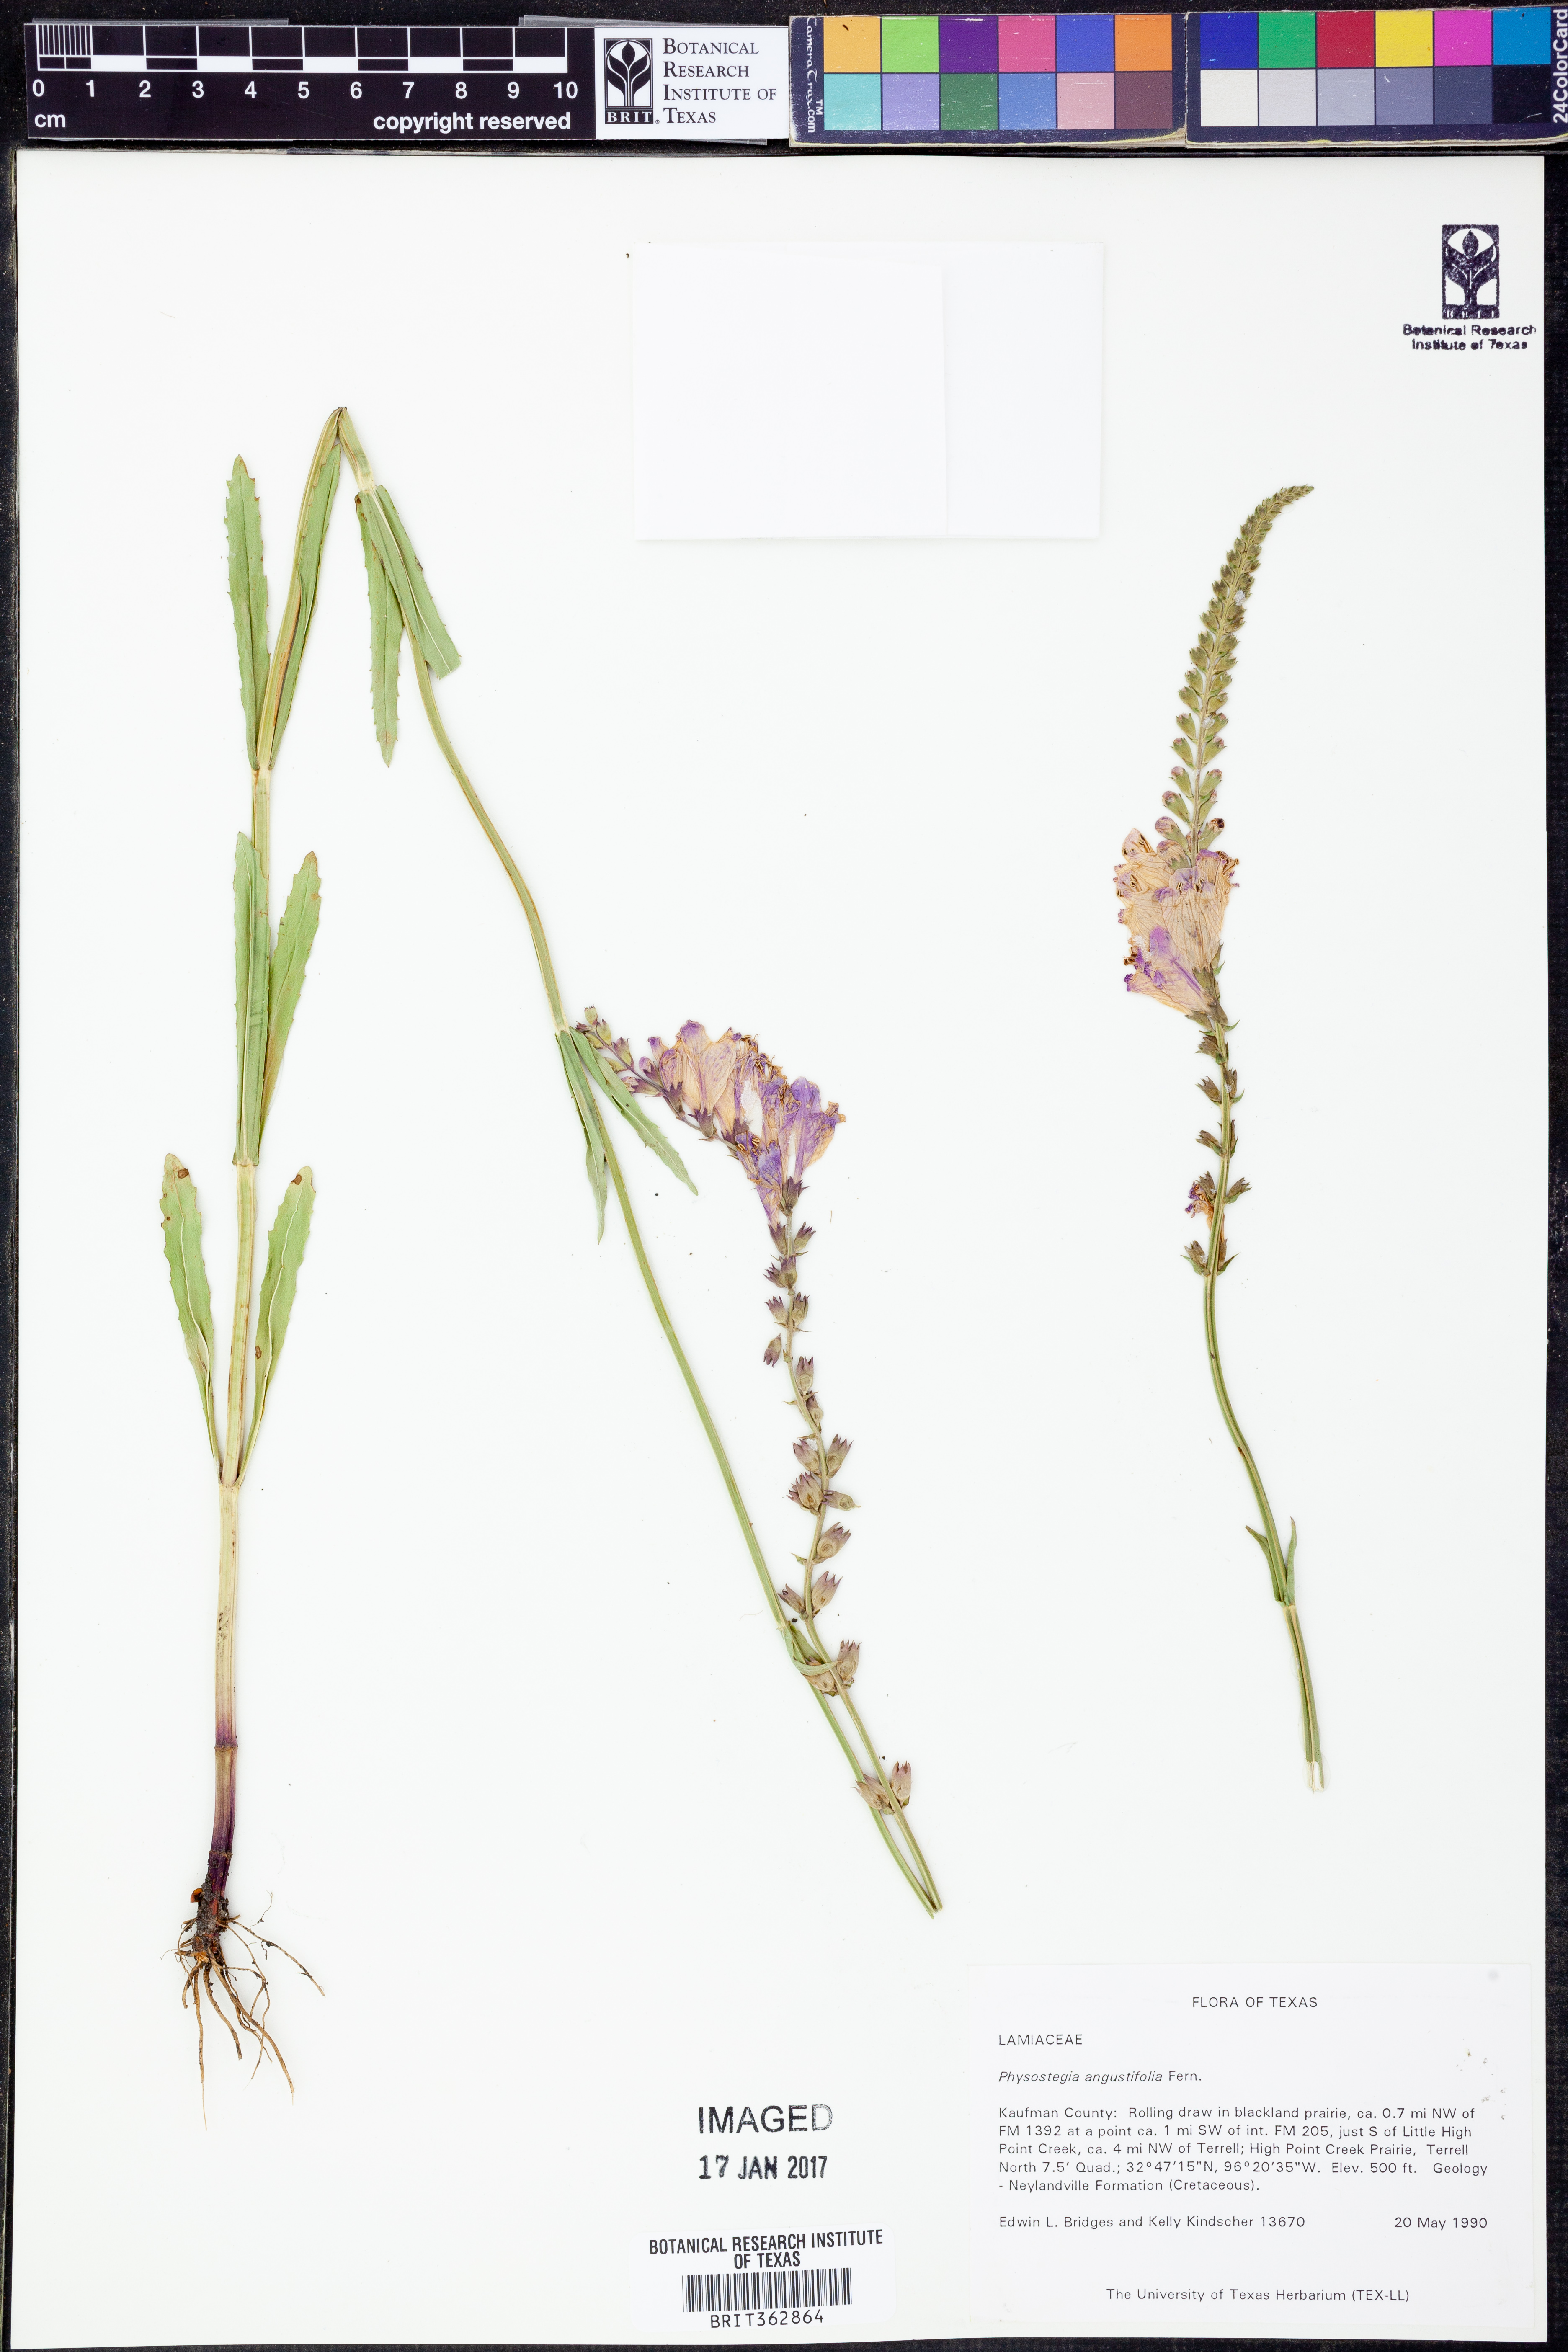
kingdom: Plantae
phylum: Tracheophyta
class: Magnoliopsida
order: Lamiales
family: Lamiaceae
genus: Physostegia
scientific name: Physostegia angustifolia
